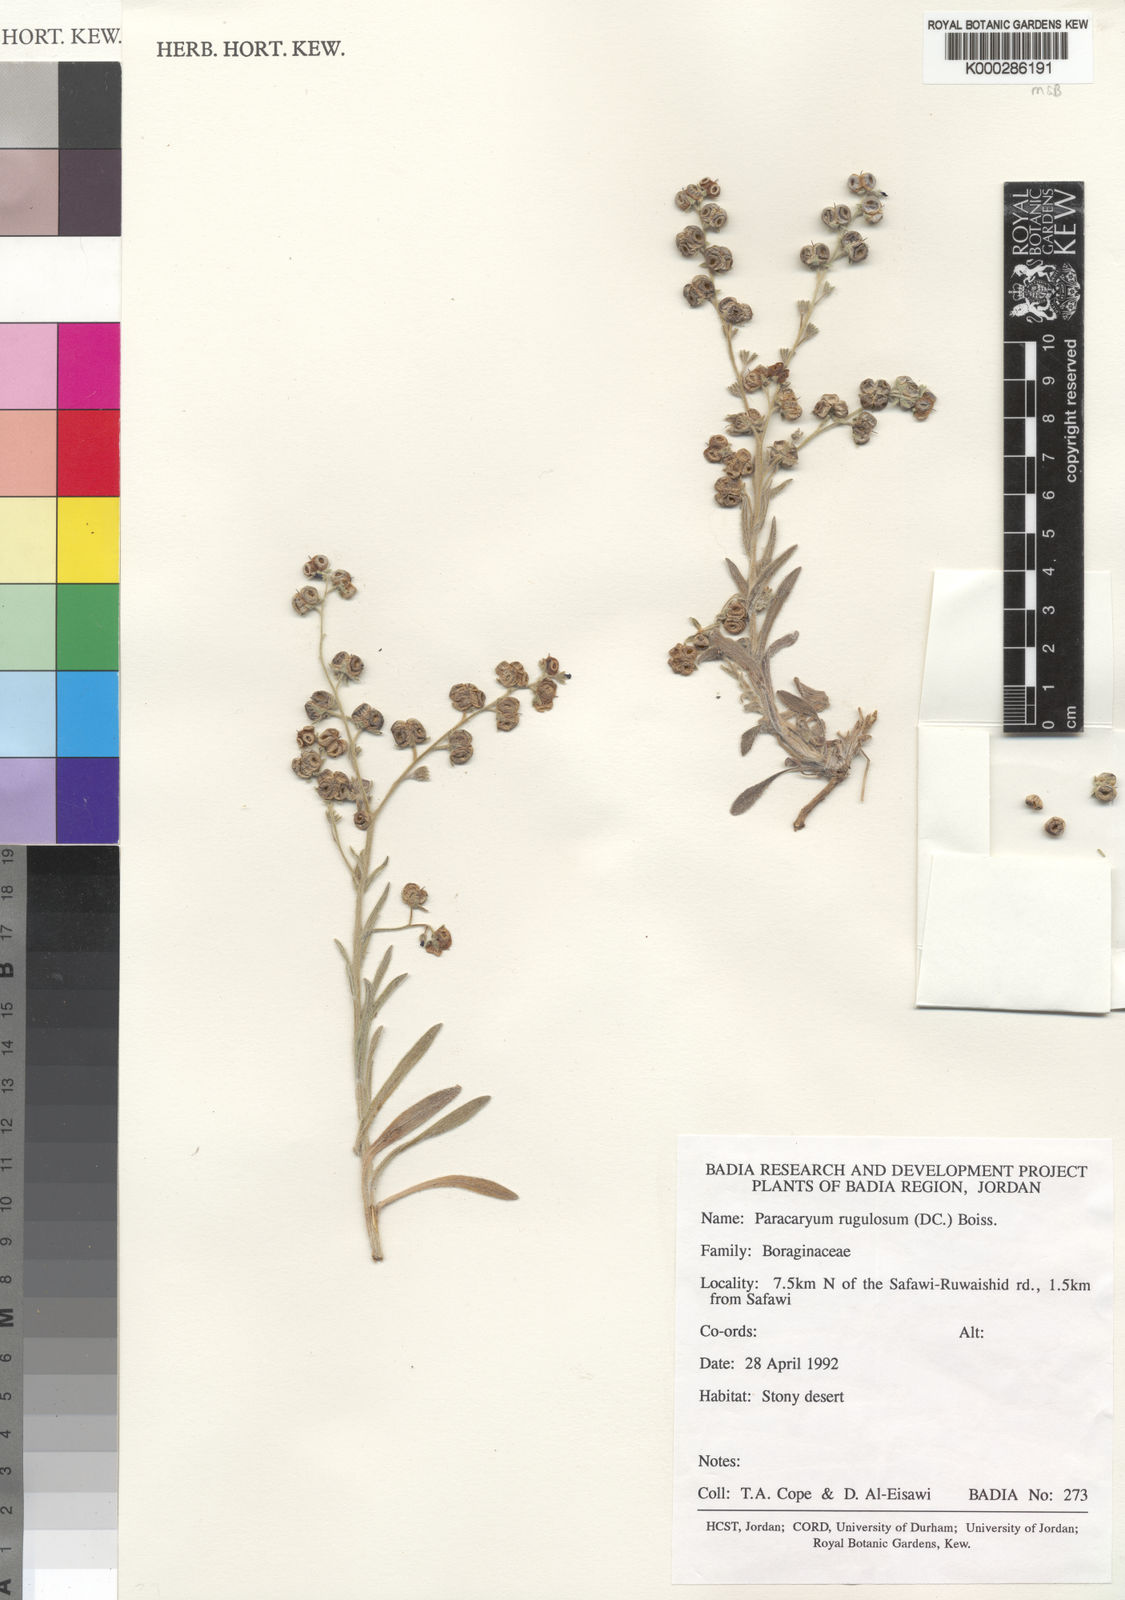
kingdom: Plantae
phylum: Tracheophyta
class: Magnoliopsida
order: Boraginales
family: Boraginaceae
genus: Paracaryum
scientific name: Paracaryum rugulosum
